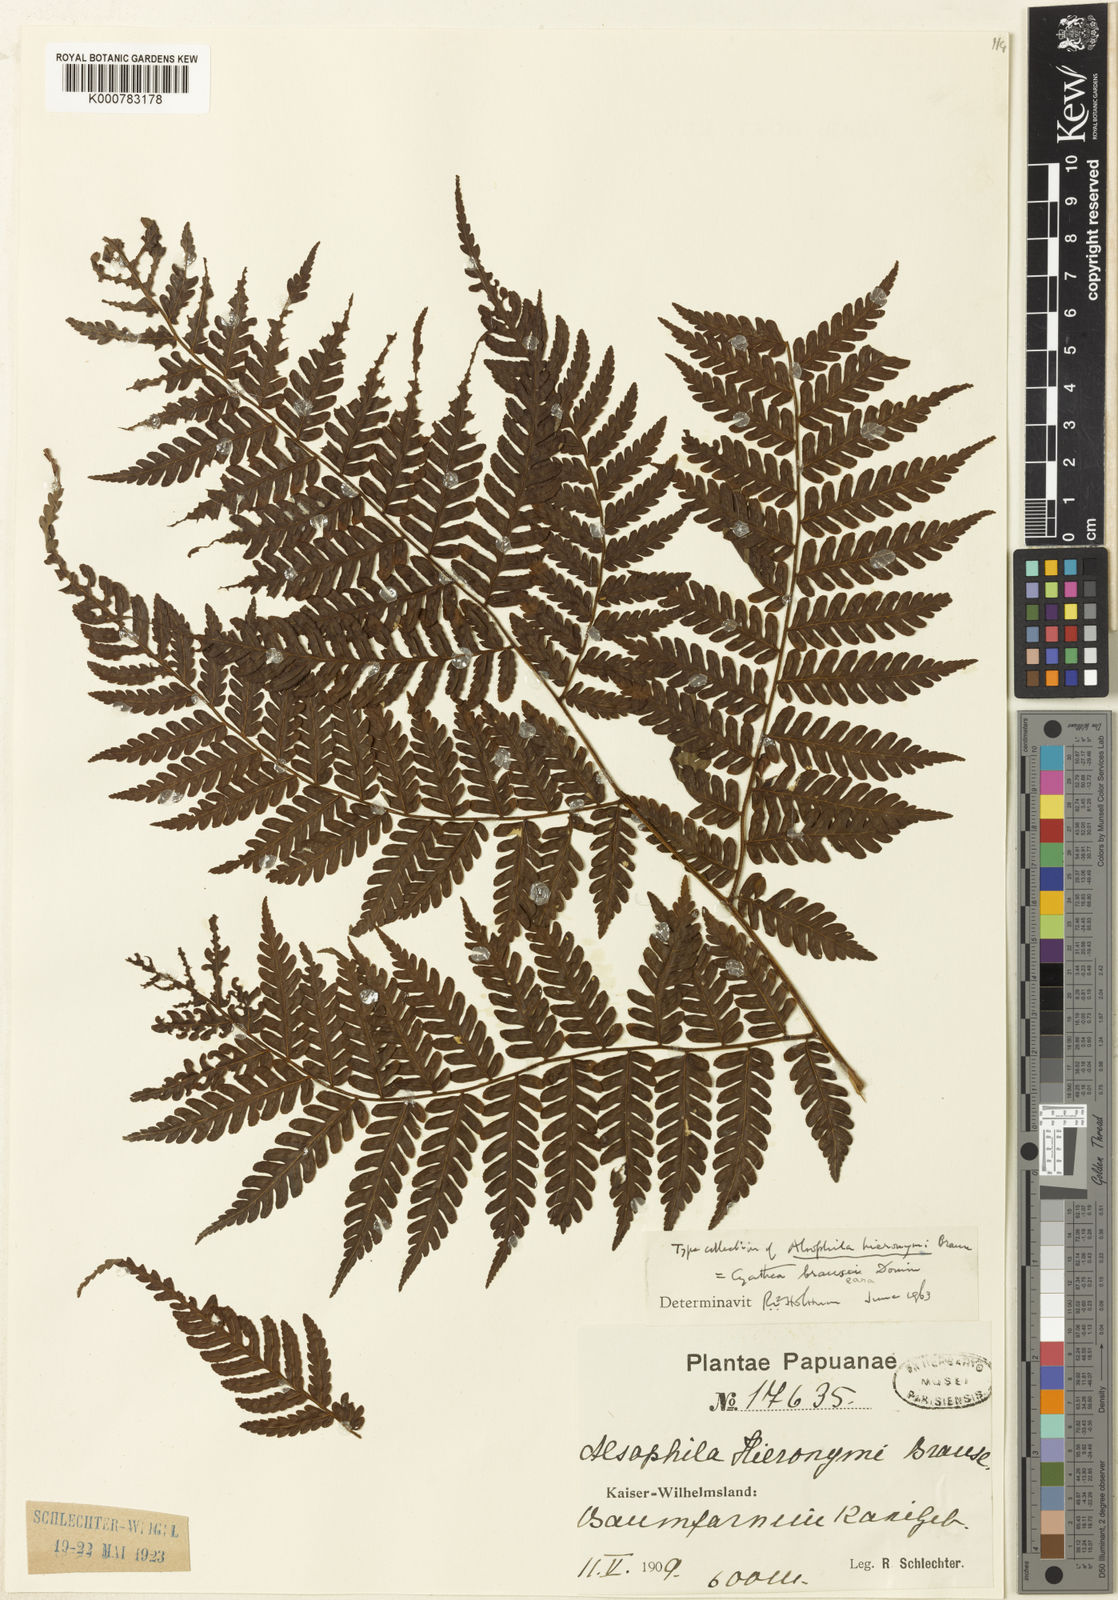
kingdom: Plantae
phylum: Tracheophyta
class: Polypodiopsida
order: Cyatheales
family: Cyatheaceae
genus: Alsophila
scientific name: Alsophila wengiensis
